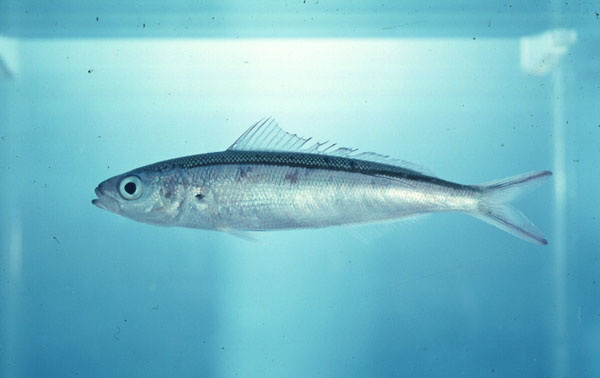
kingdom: Animalia
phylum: Chordata
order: Perciformes
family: Caesionidae
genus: Pterocaesio
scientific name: Pterocaesio tile
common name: Dark-banded fusilier
